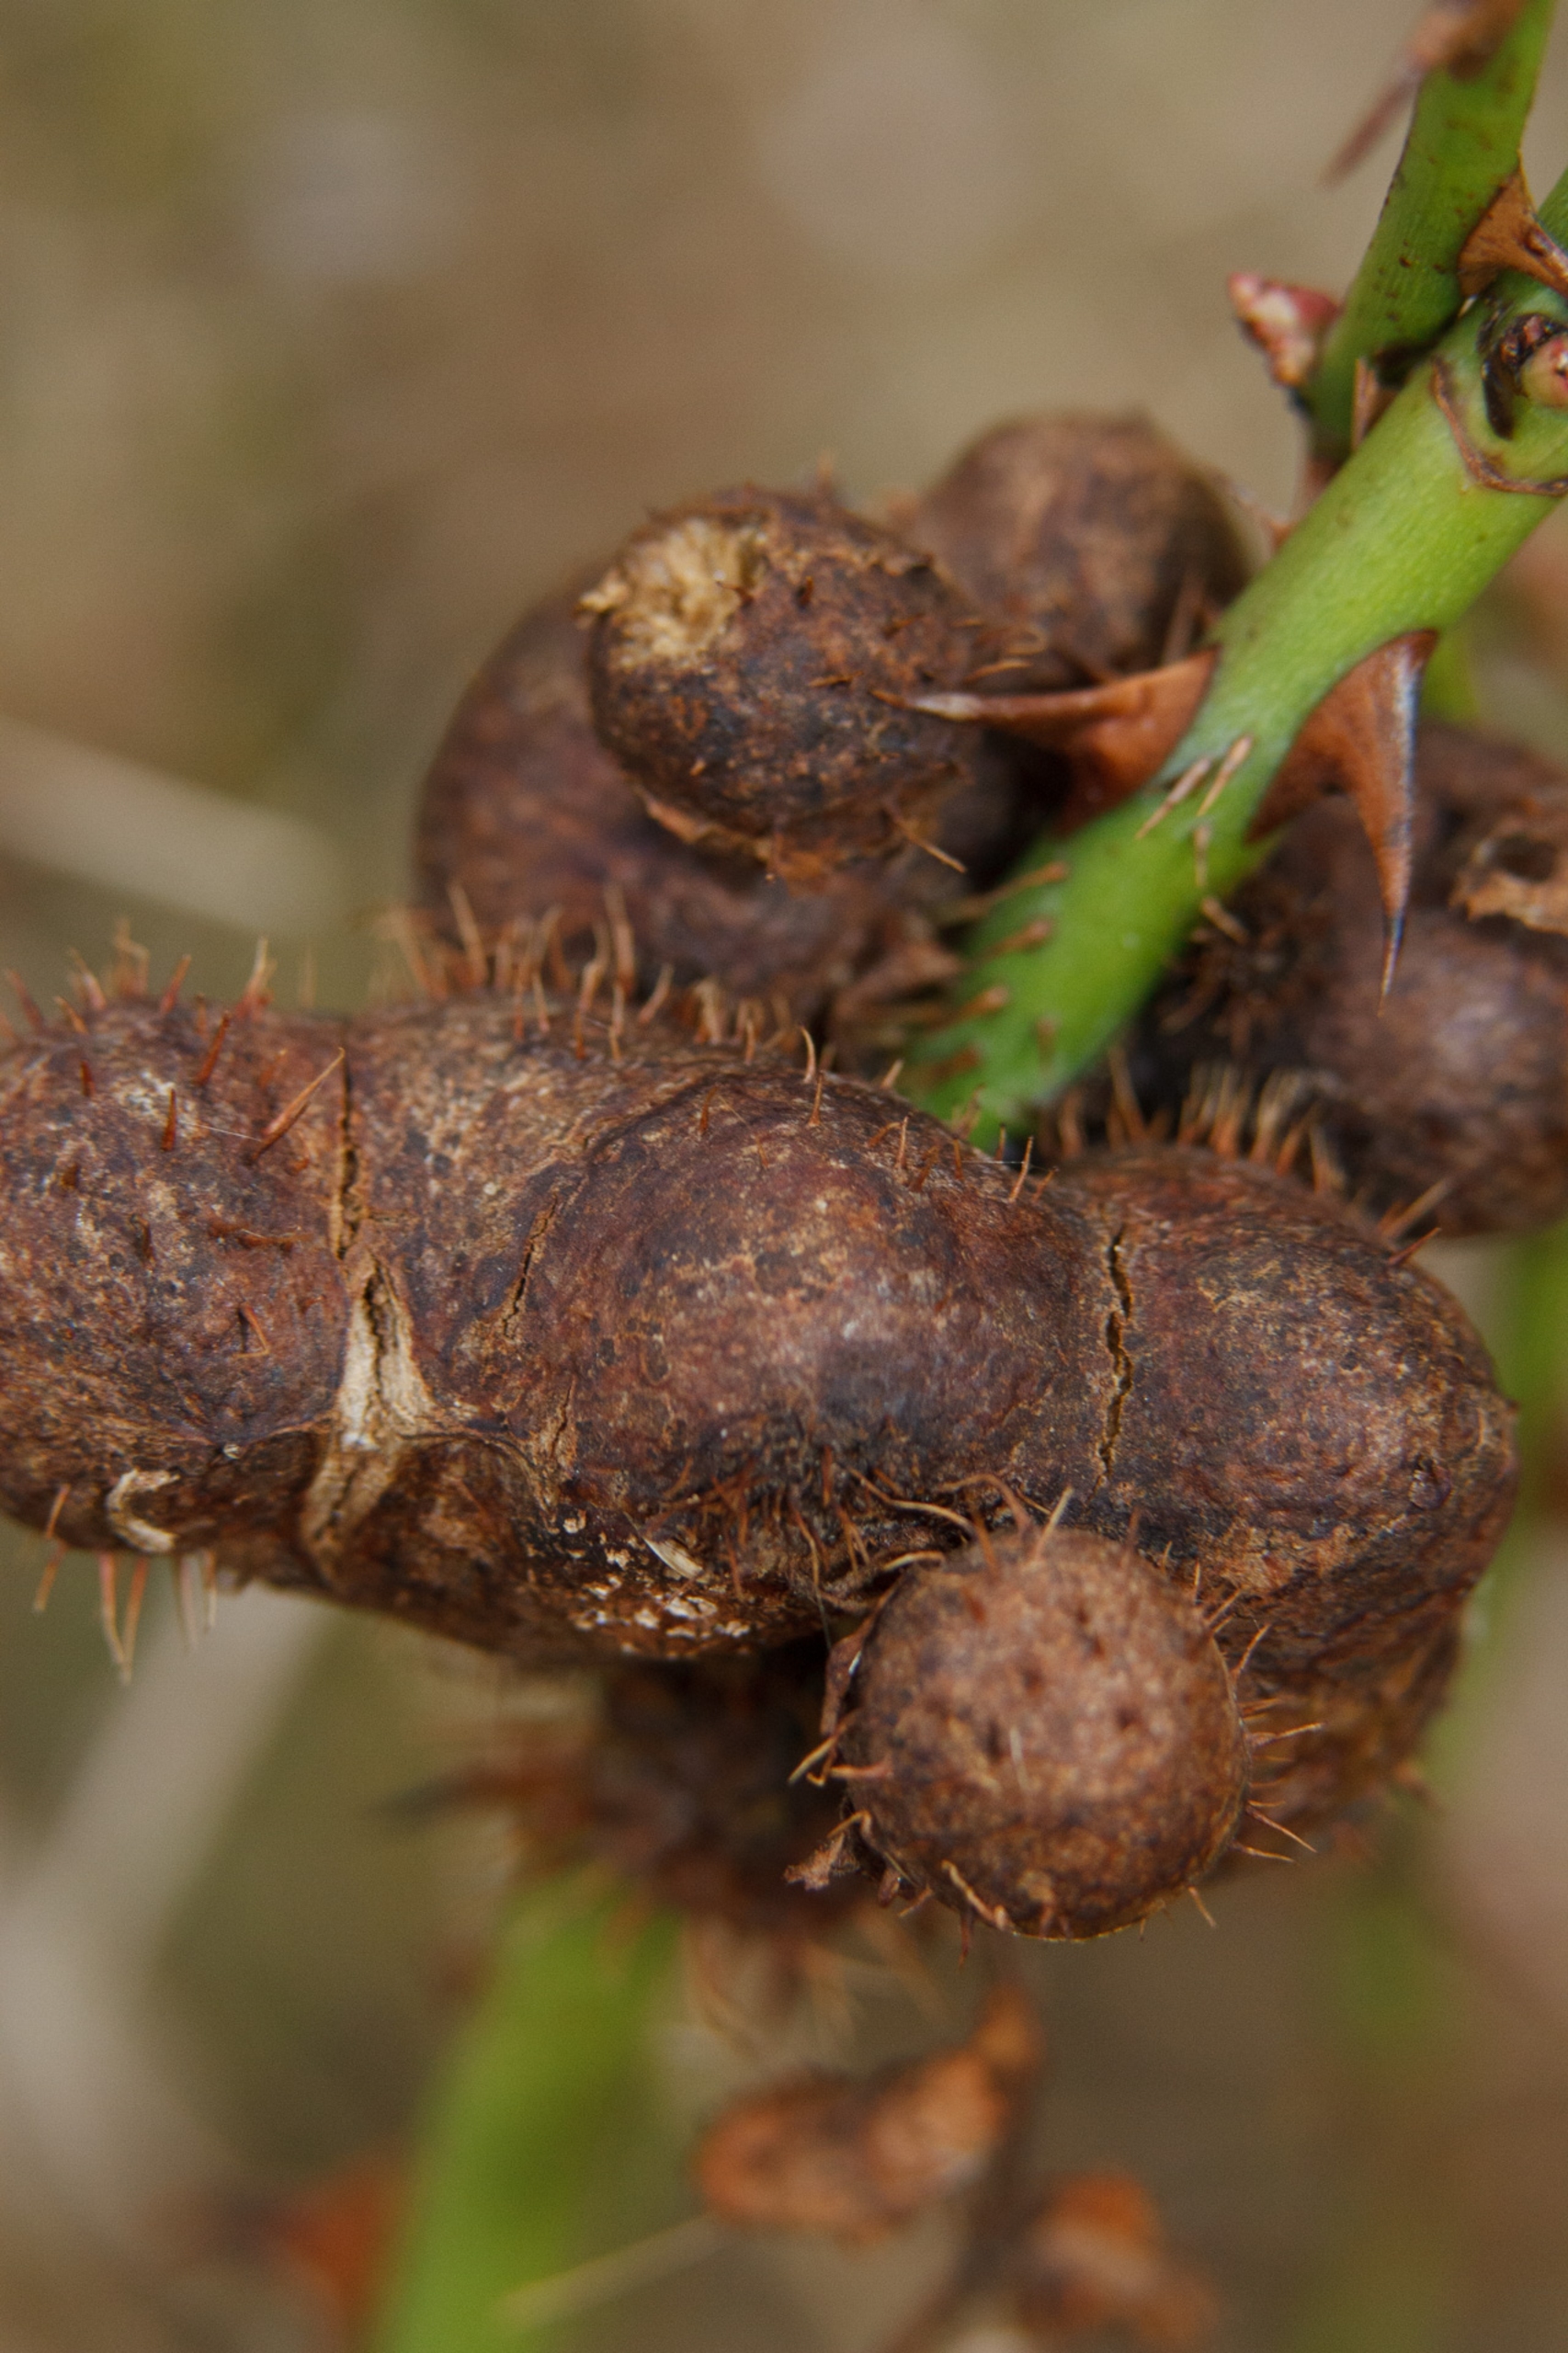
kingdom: Animalia
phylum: Arthropoda
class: Insecta
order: Hymenoptera
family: Cynipidae
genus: Diplolepis
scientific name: Diplolepis mayri
